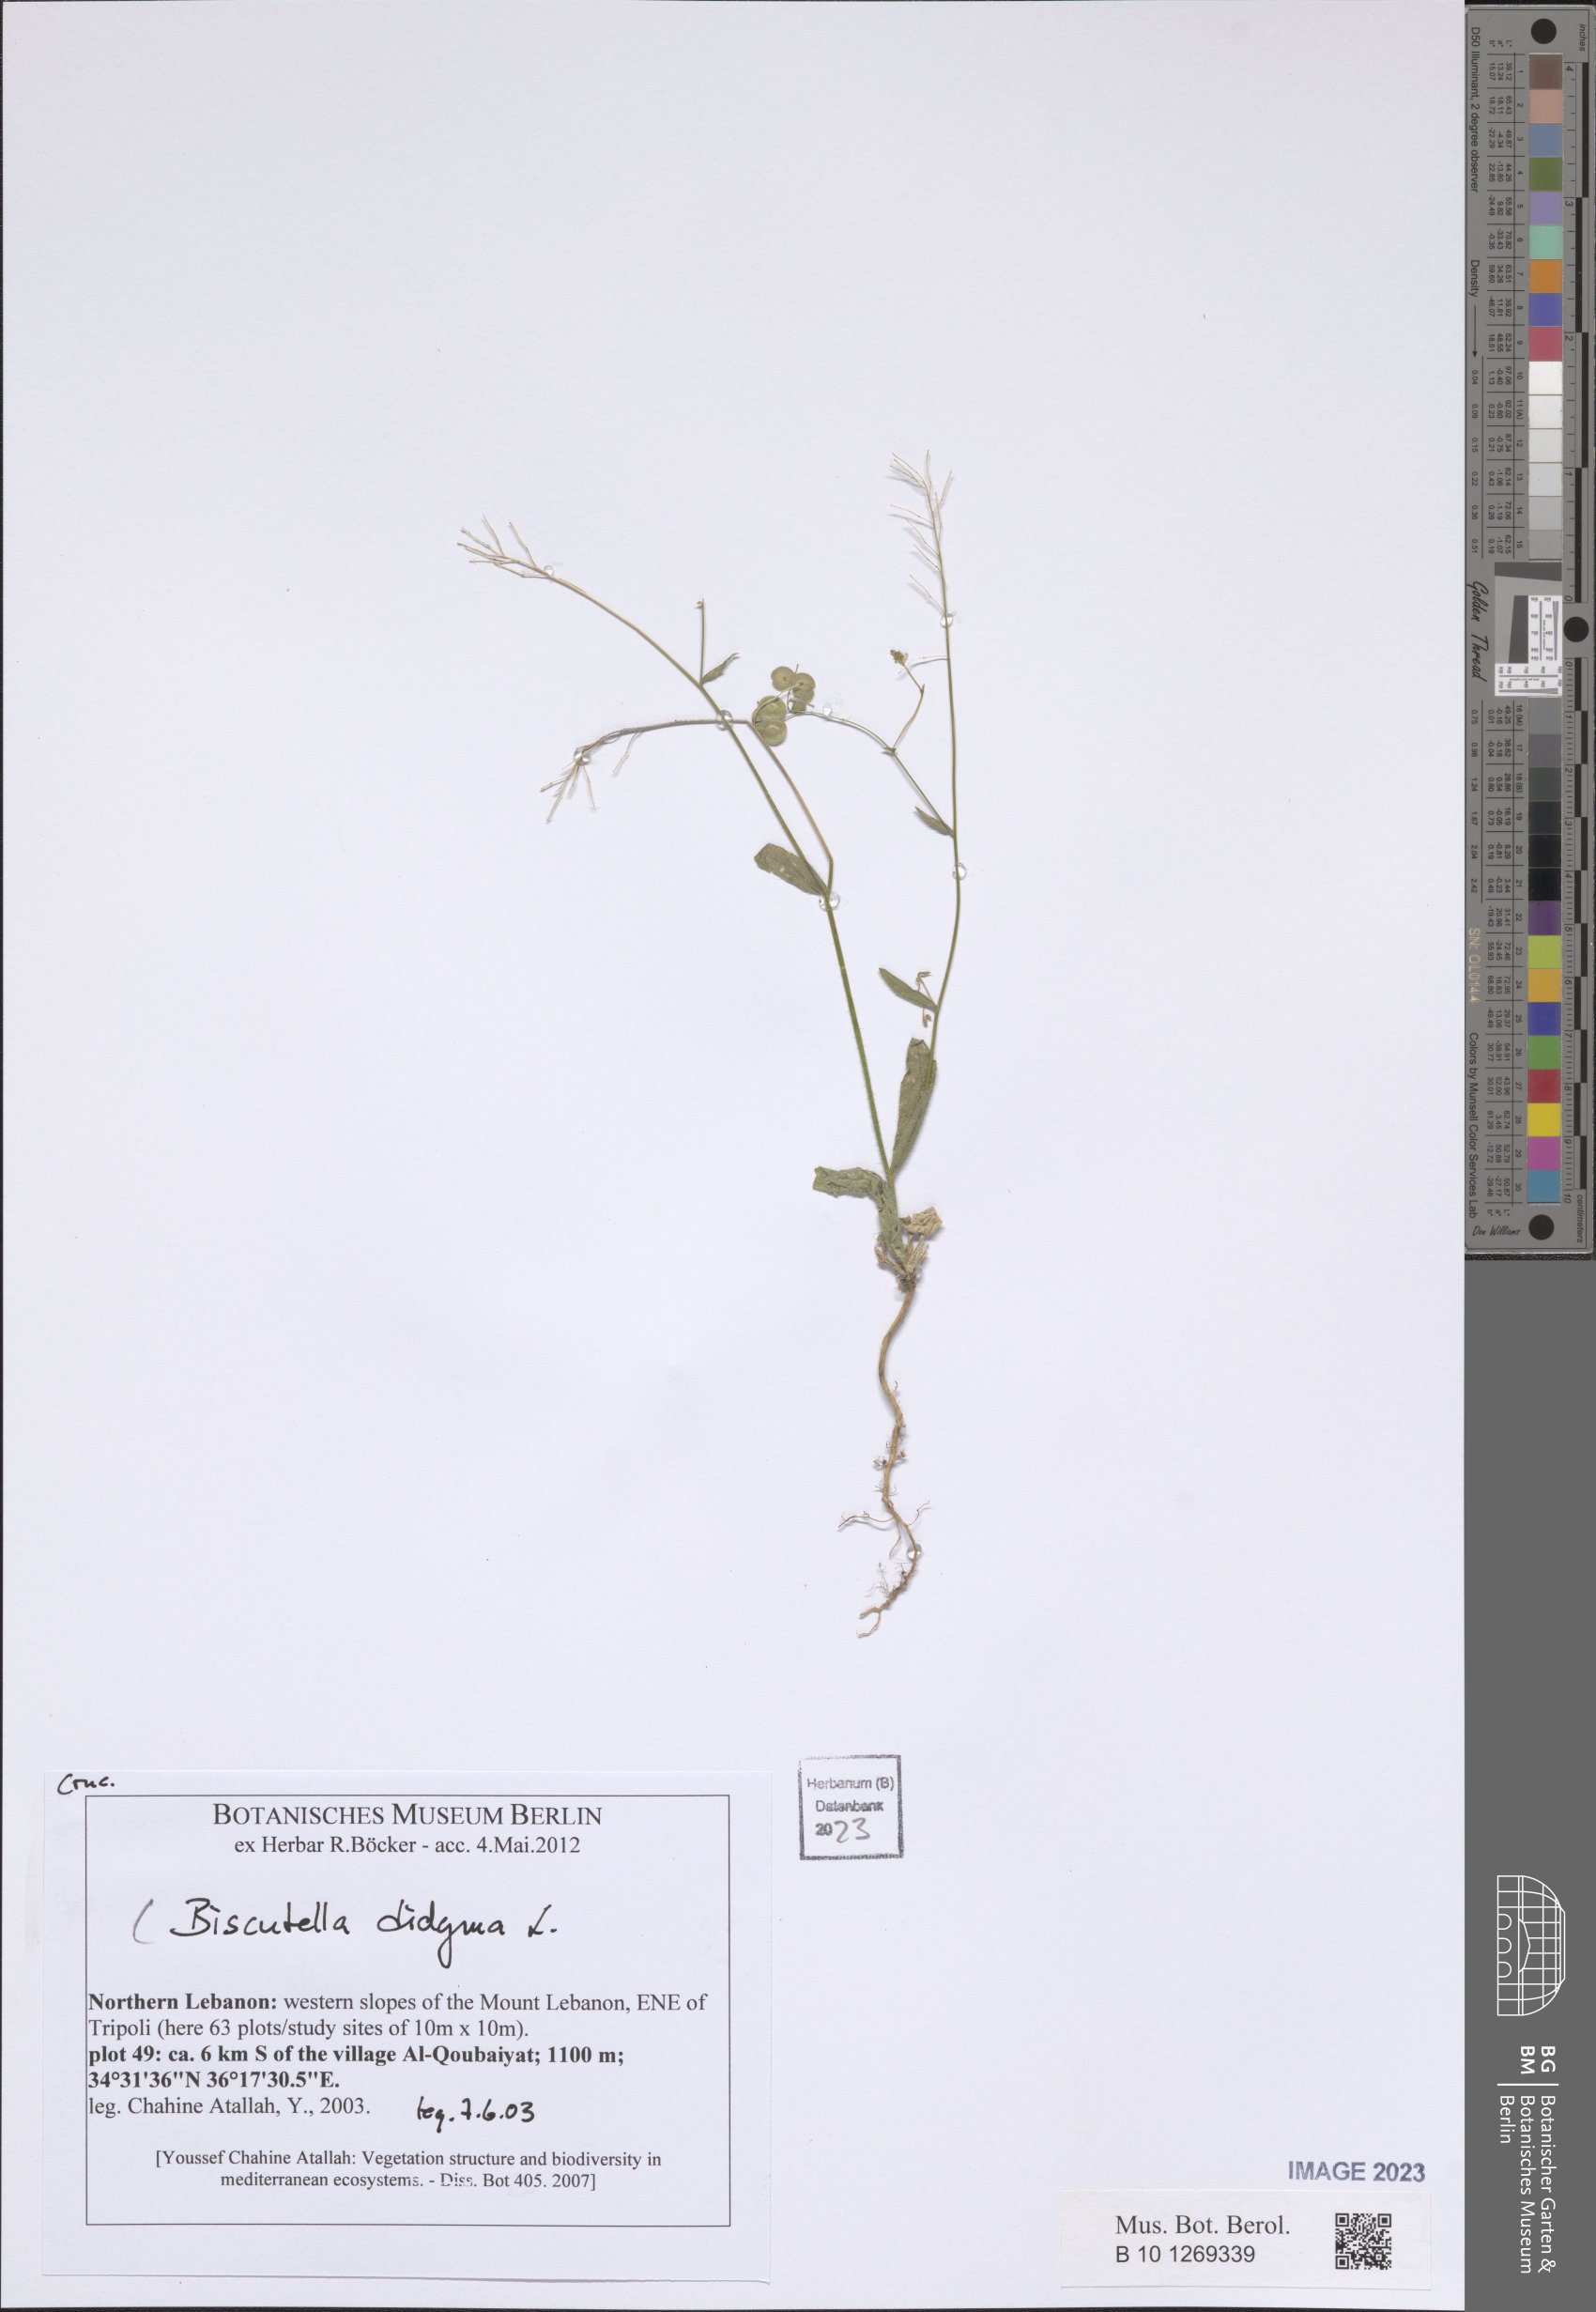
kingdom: Plantae
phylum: Tracheophyta
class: Magnoliopsida
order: Brassicales
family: Brassicaceae
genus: Biscutella
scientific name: Biscutella didyma
